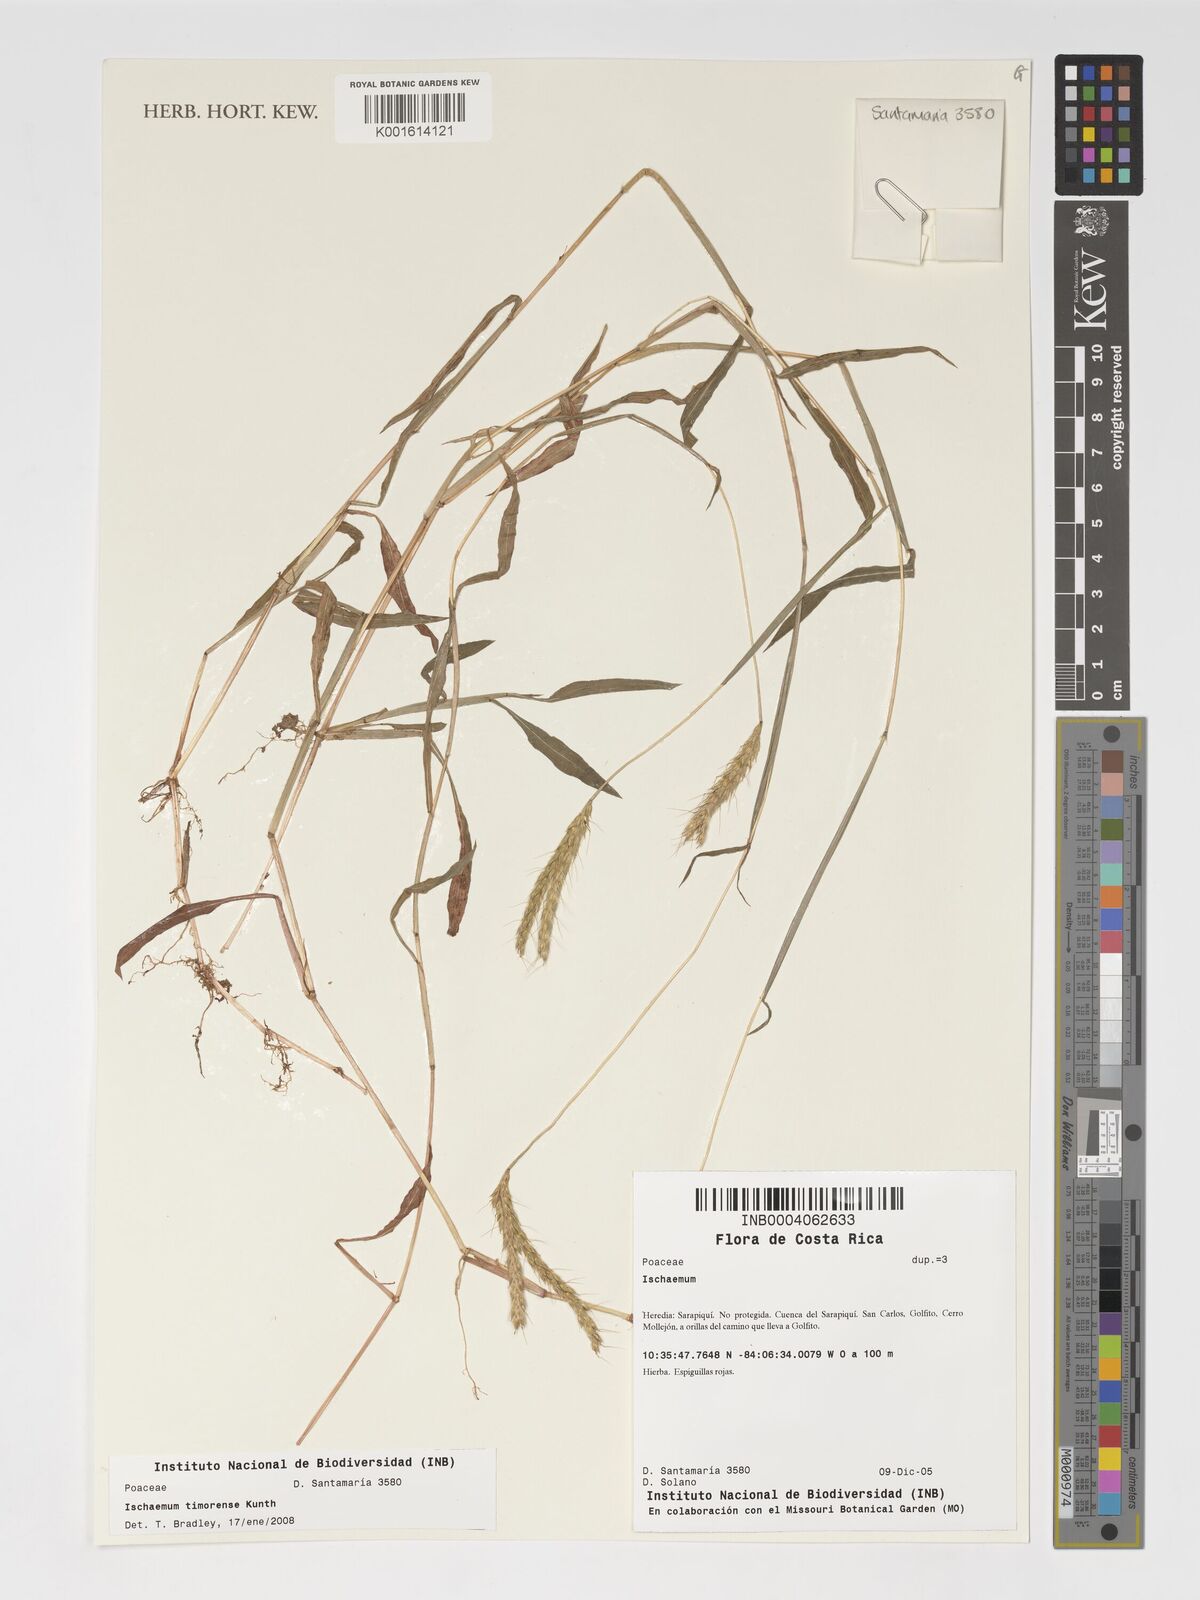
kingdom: Plantae
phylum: Tracheophyta
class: Liliopsida
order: Poales
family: Poaceae
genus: Ischaemum
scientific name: Ischaemum timorense
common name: Stalkleaf murainagrass
